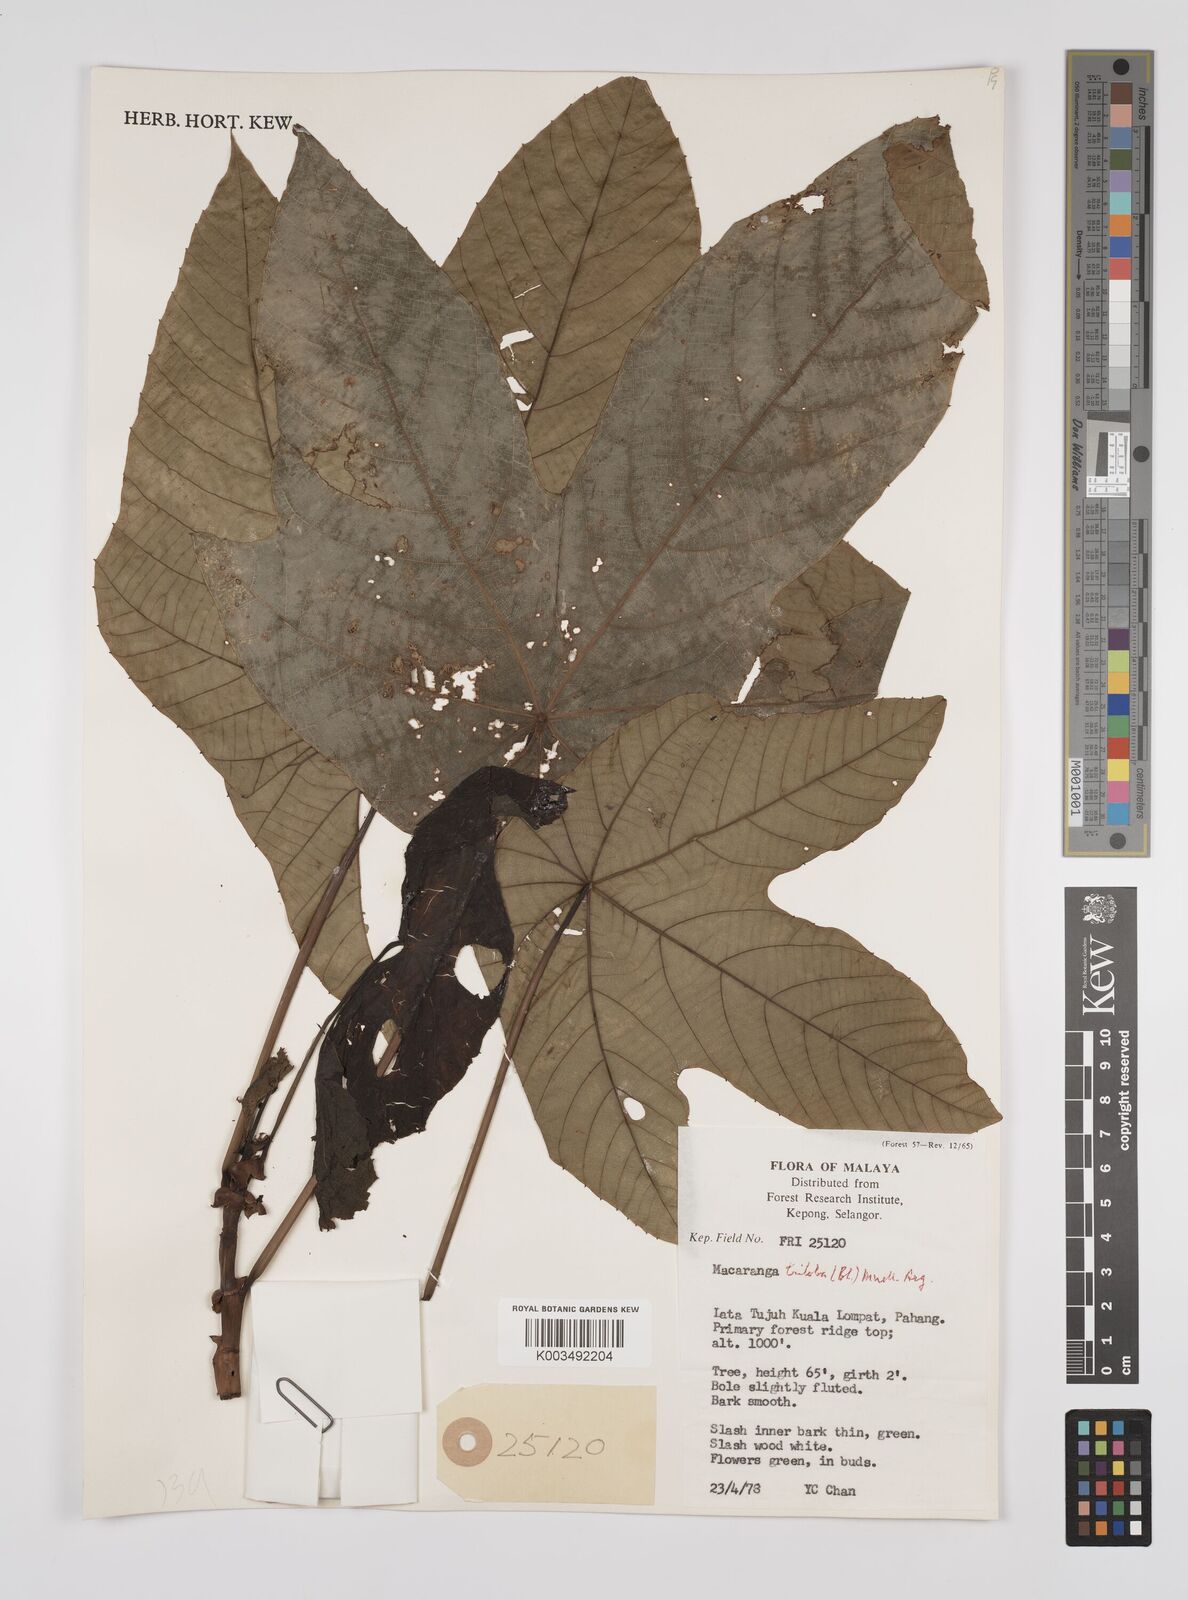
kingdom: Plantae
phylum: Tracheophyta
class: Magnoliopsida
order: Malpighiales
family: Euphorbiaceae
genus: Macaranga
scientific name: Macaranga triloba
